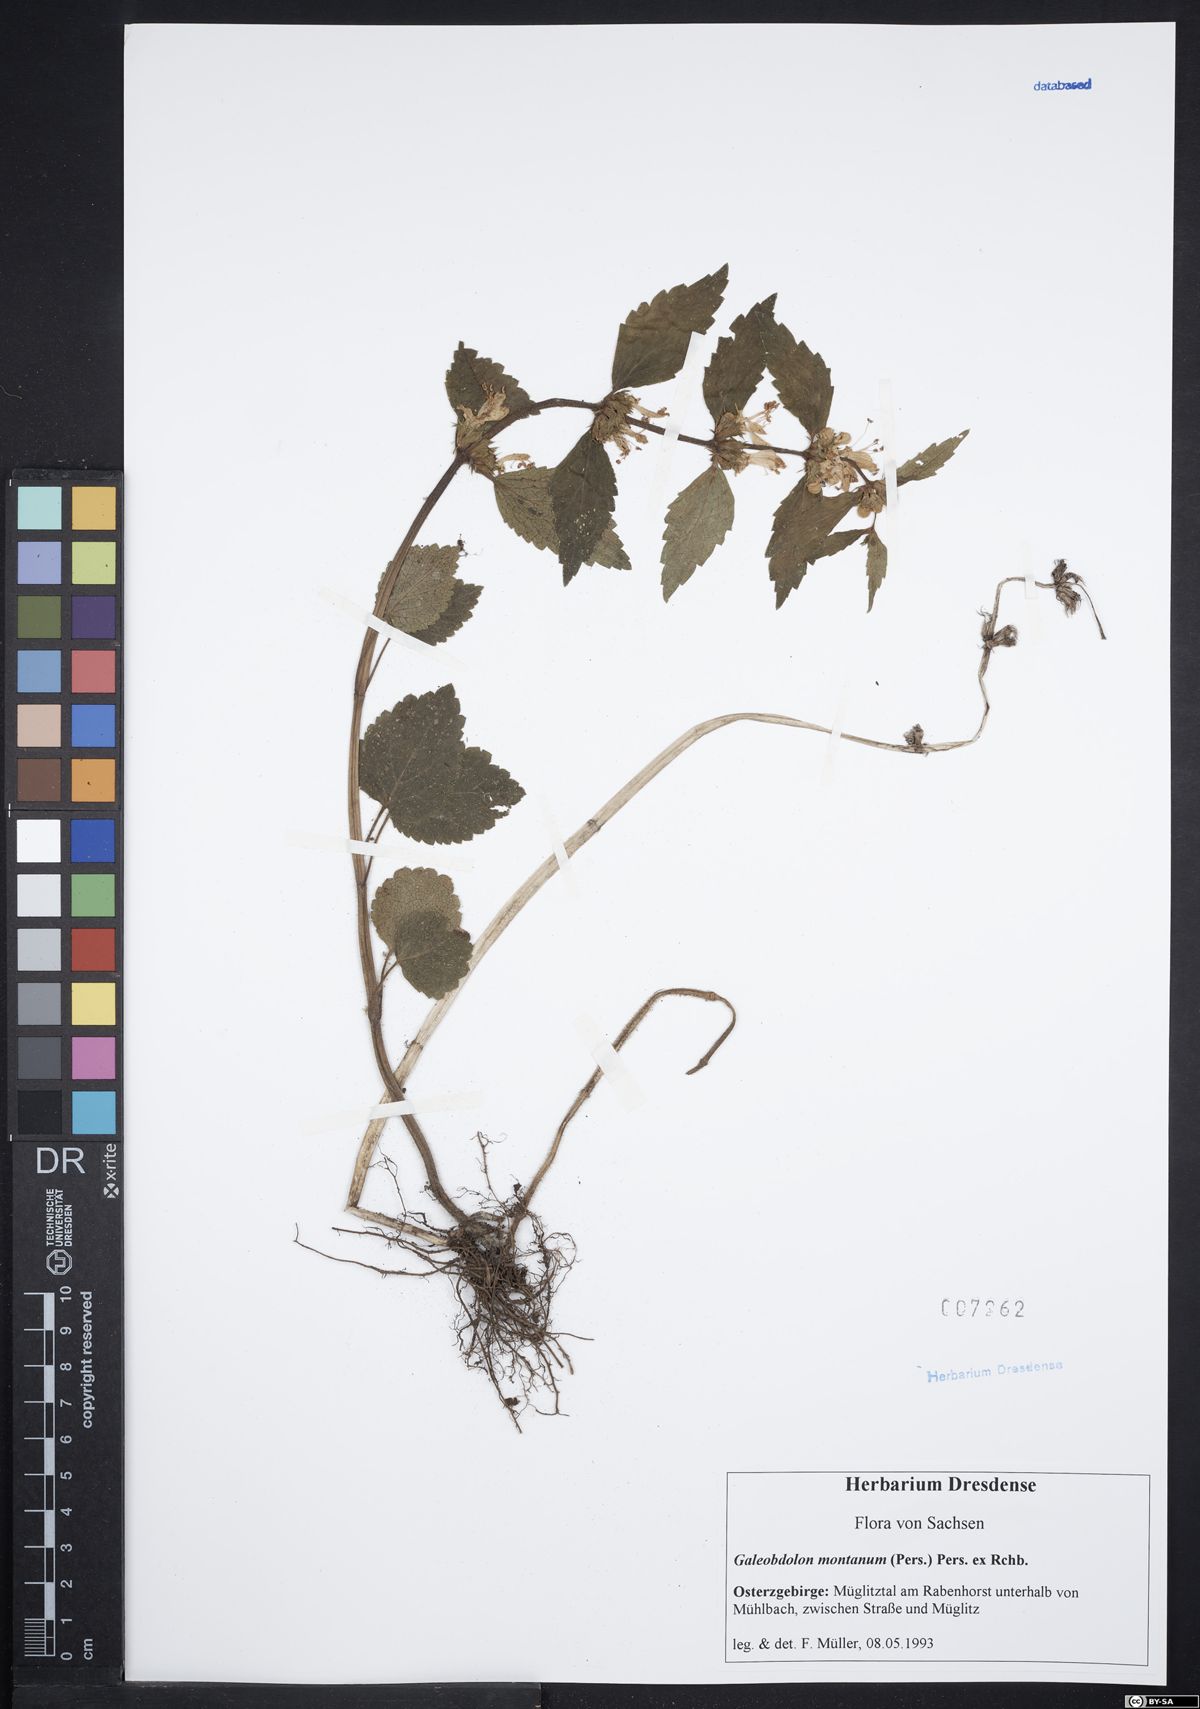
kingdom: Plantae
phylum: Tracheophyta
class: Magnoliopsida
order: Lamiales
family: Lamiaceae
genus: Lamium
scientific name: Lamium galeobdolon
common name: Yellow archangel
